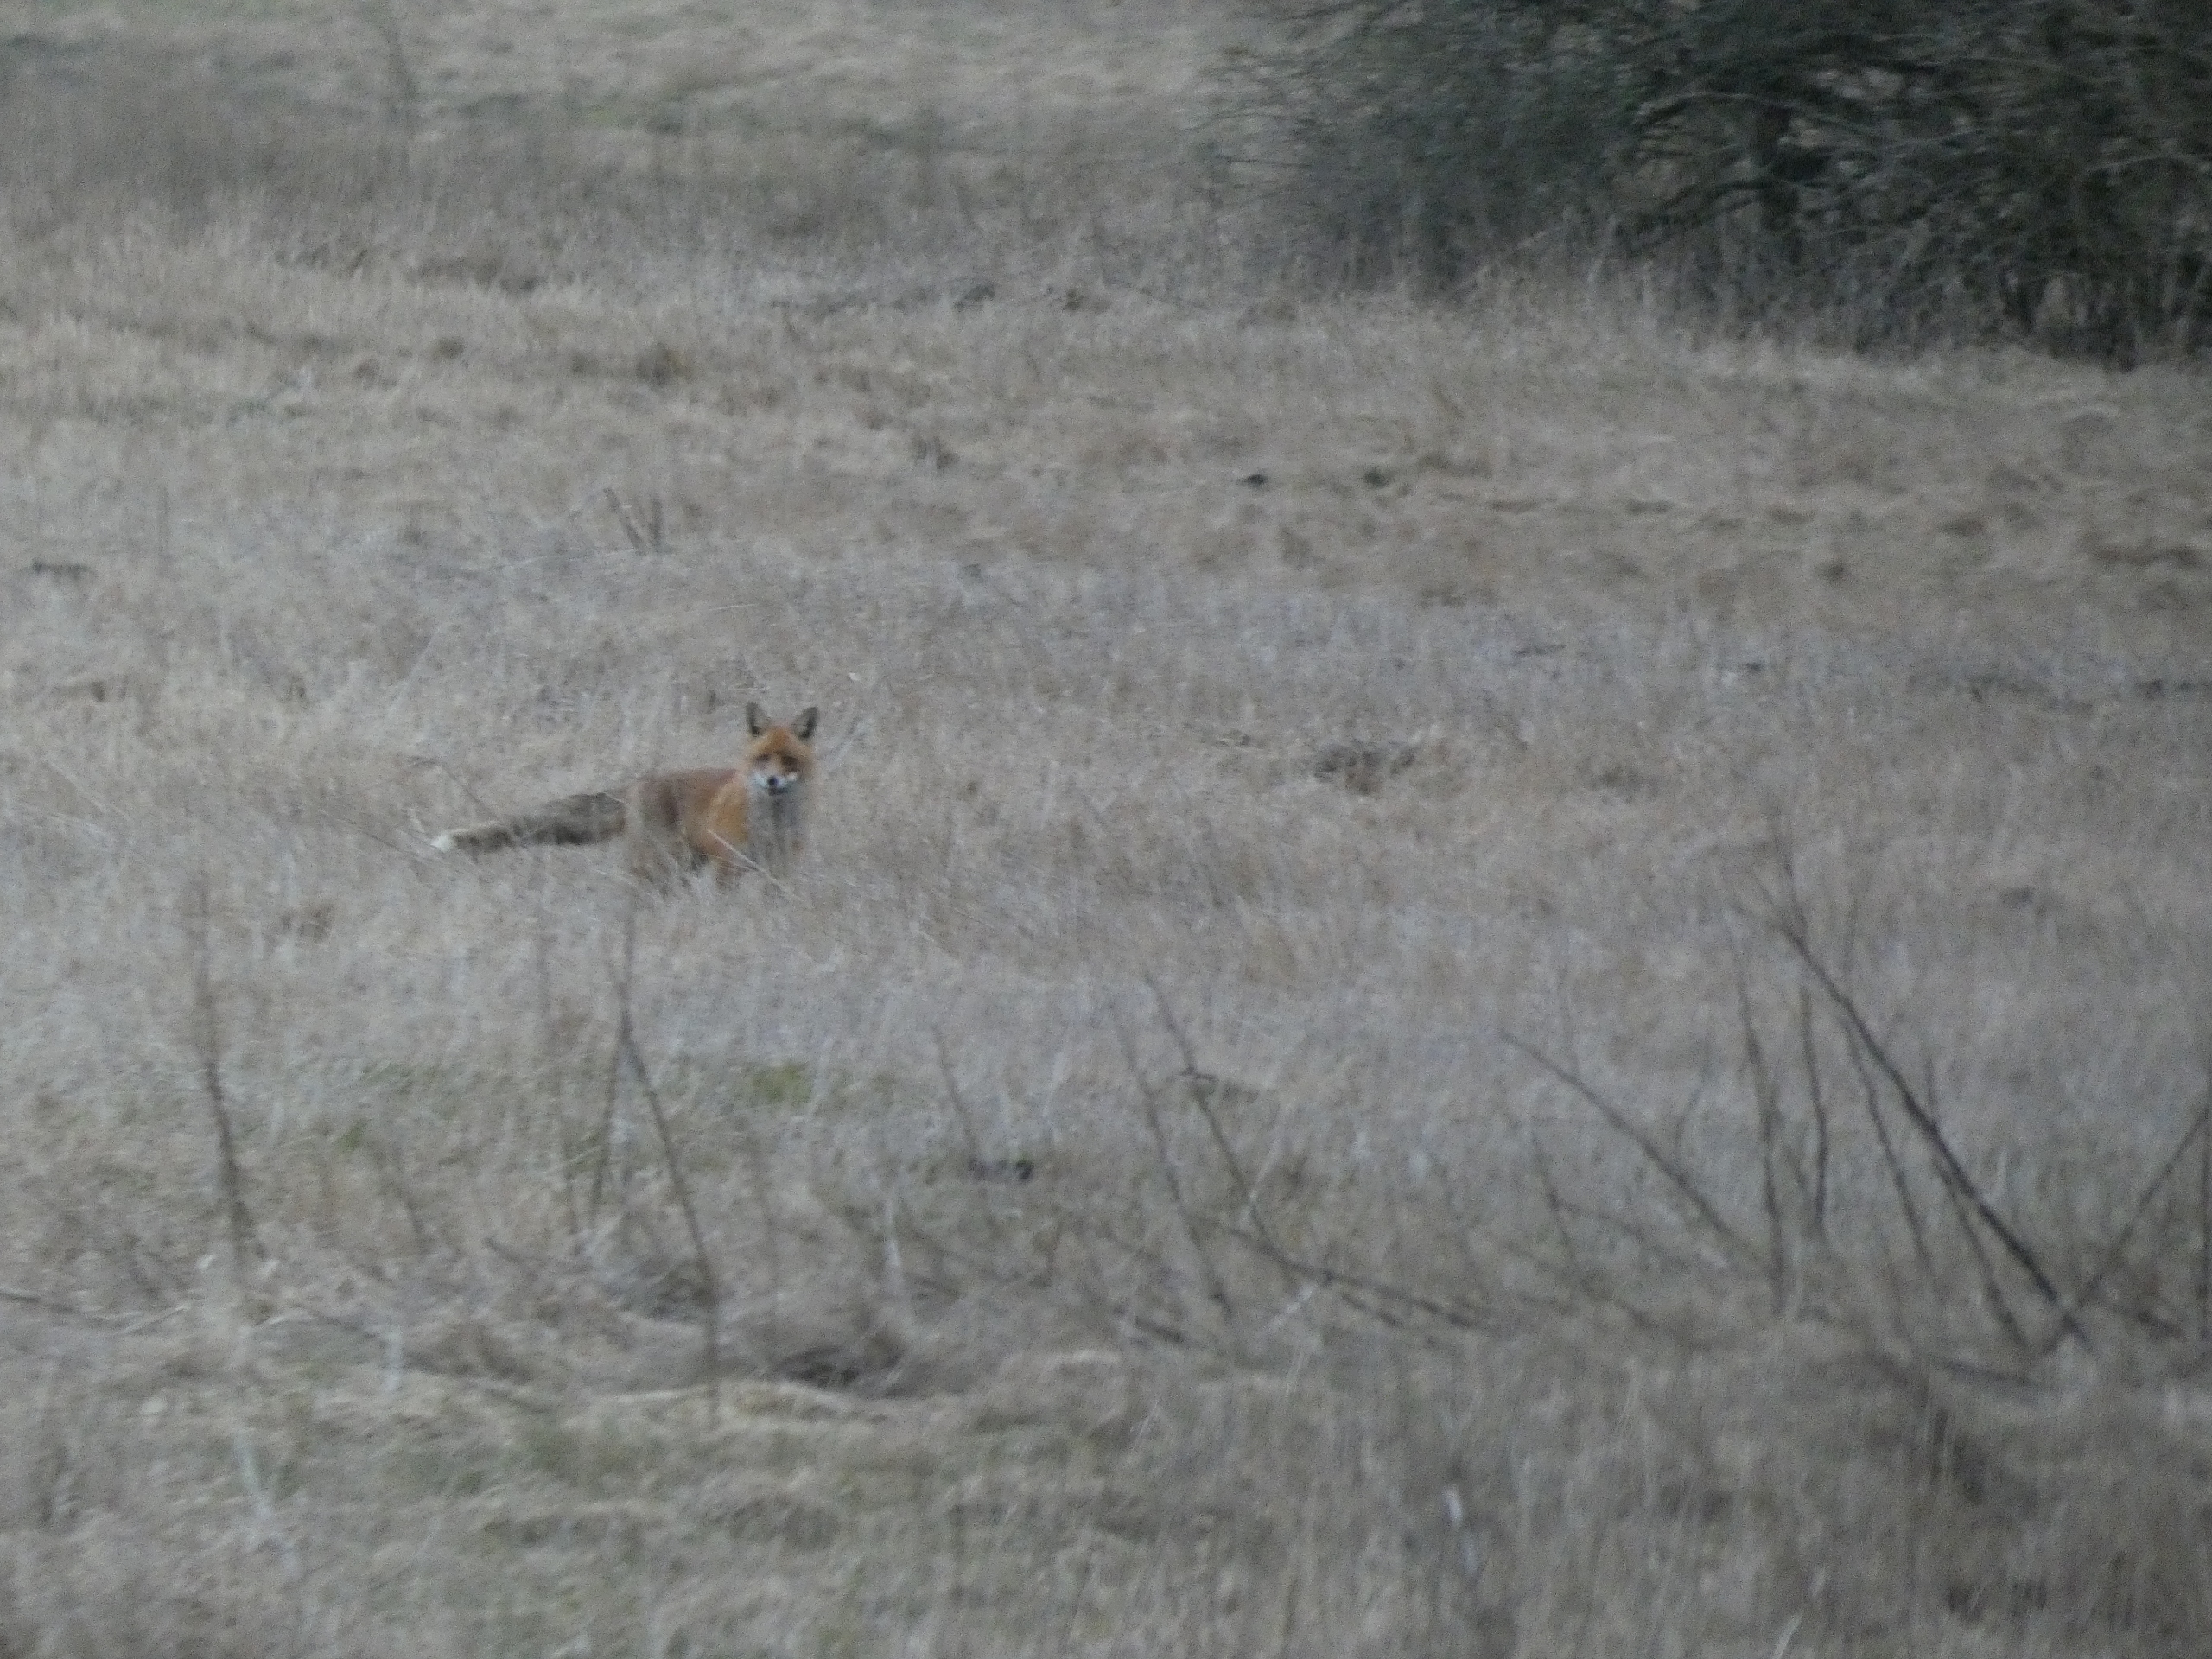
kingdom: Animalia
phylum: Chordata
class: Mammalia
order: Carnivora
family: Canidae
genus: Vulpes
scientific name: Vulpes vulpes
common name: Ræv
